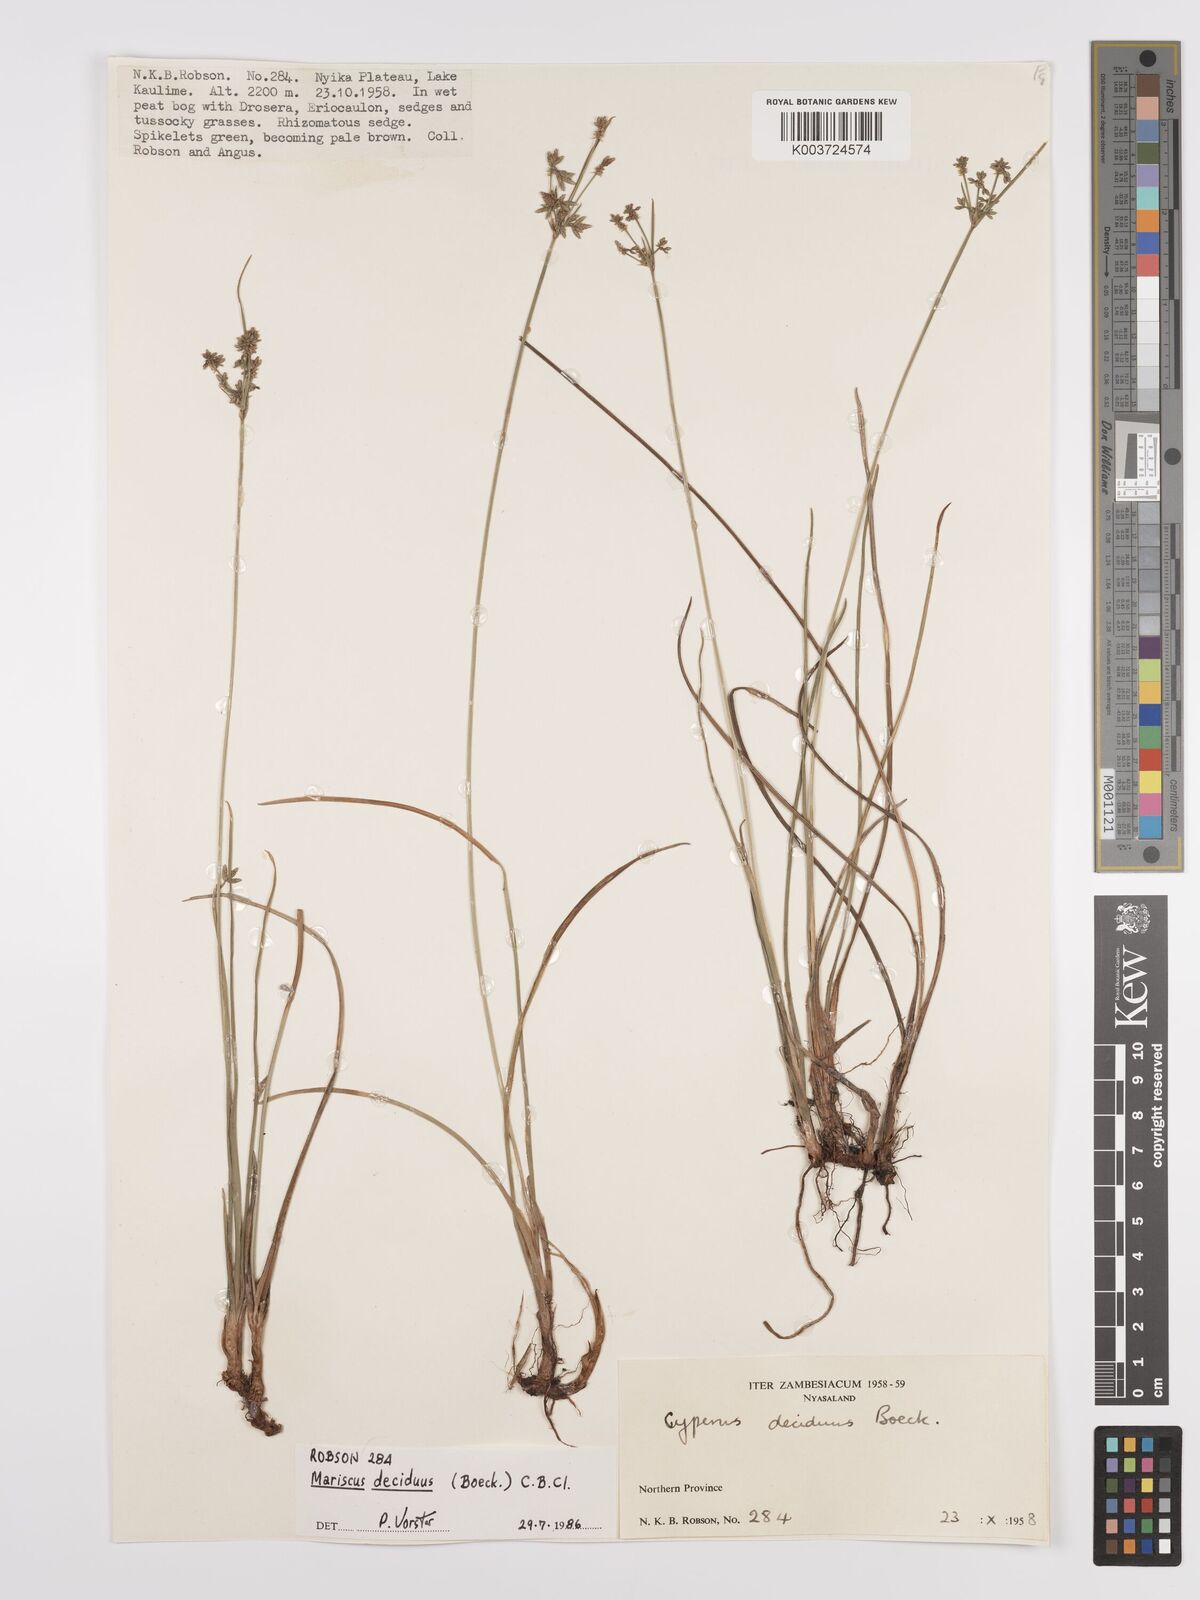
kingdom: Plantae
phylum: Tracheophyta
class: Liliopsida
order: Poales
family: Cyperaceae
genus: Cyperus
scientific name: Cyperus deciduus
